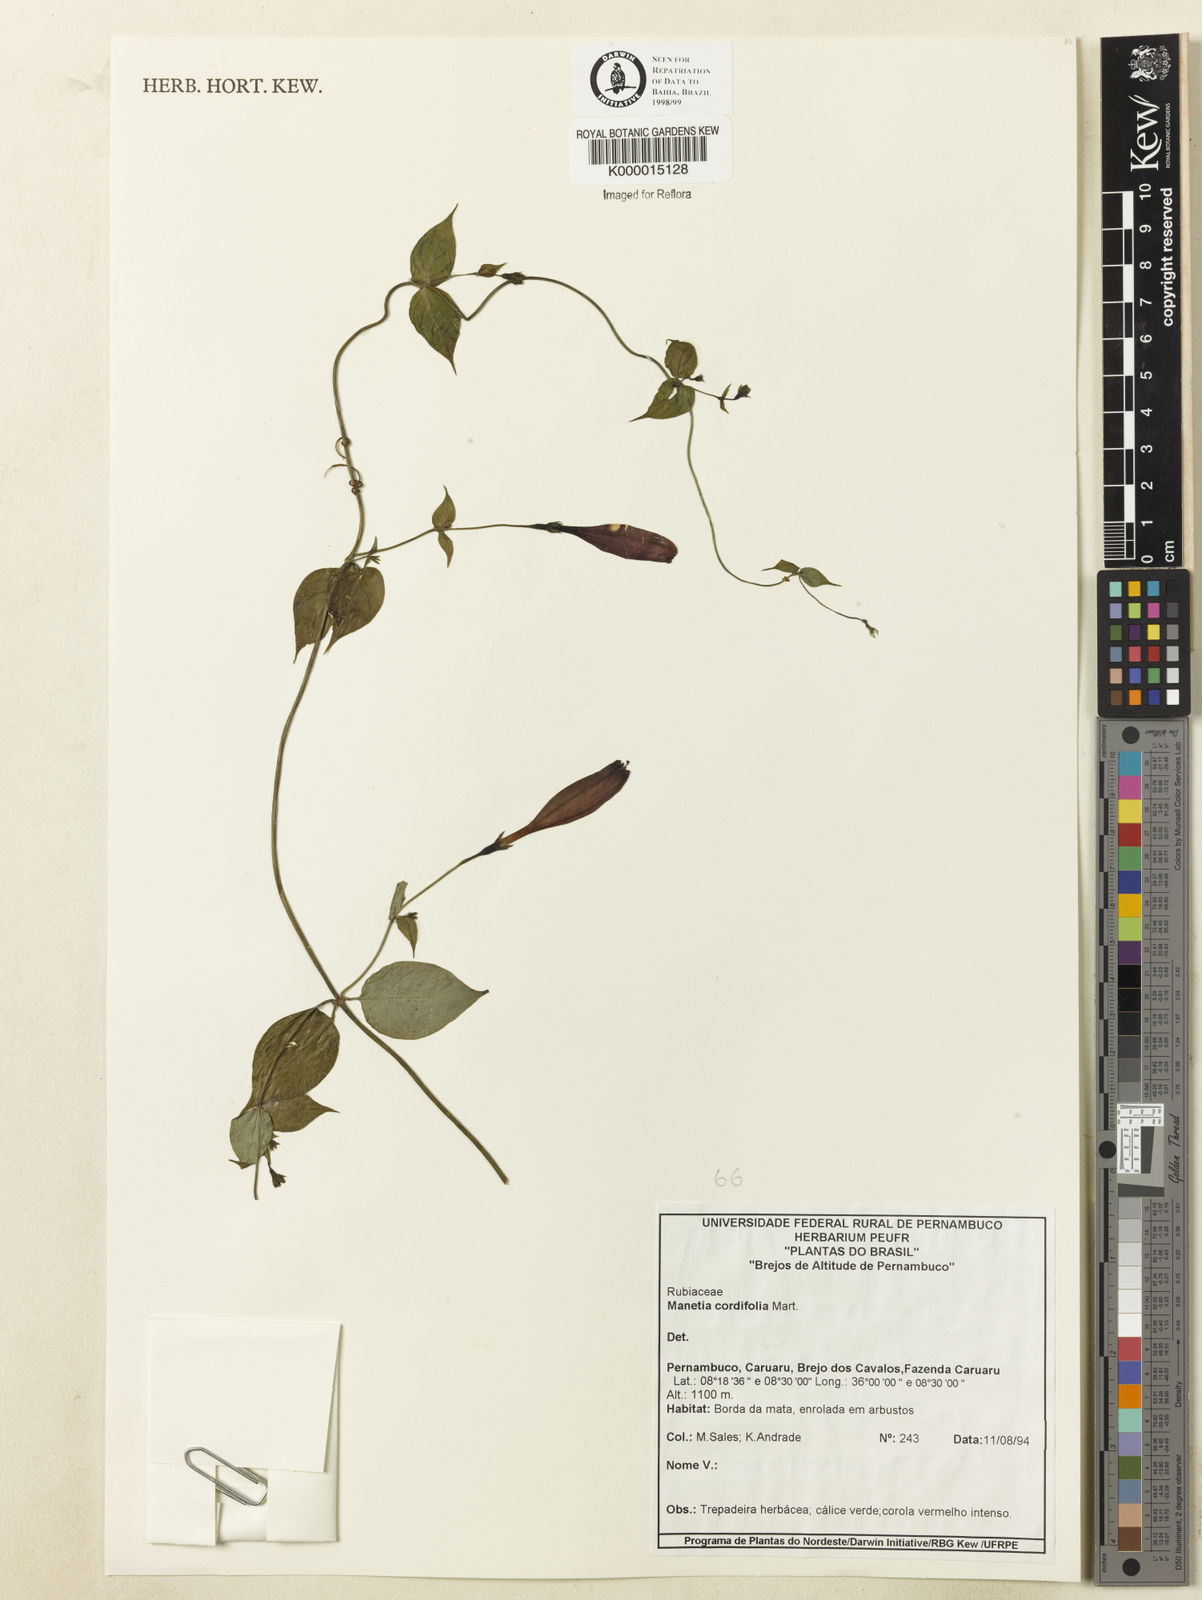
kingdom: Plantae
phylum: Tracheophyta
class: Magnoliopsida
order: Gentianales
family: Rubiaceae
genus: Manettia
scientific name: Manettia cordifolia
